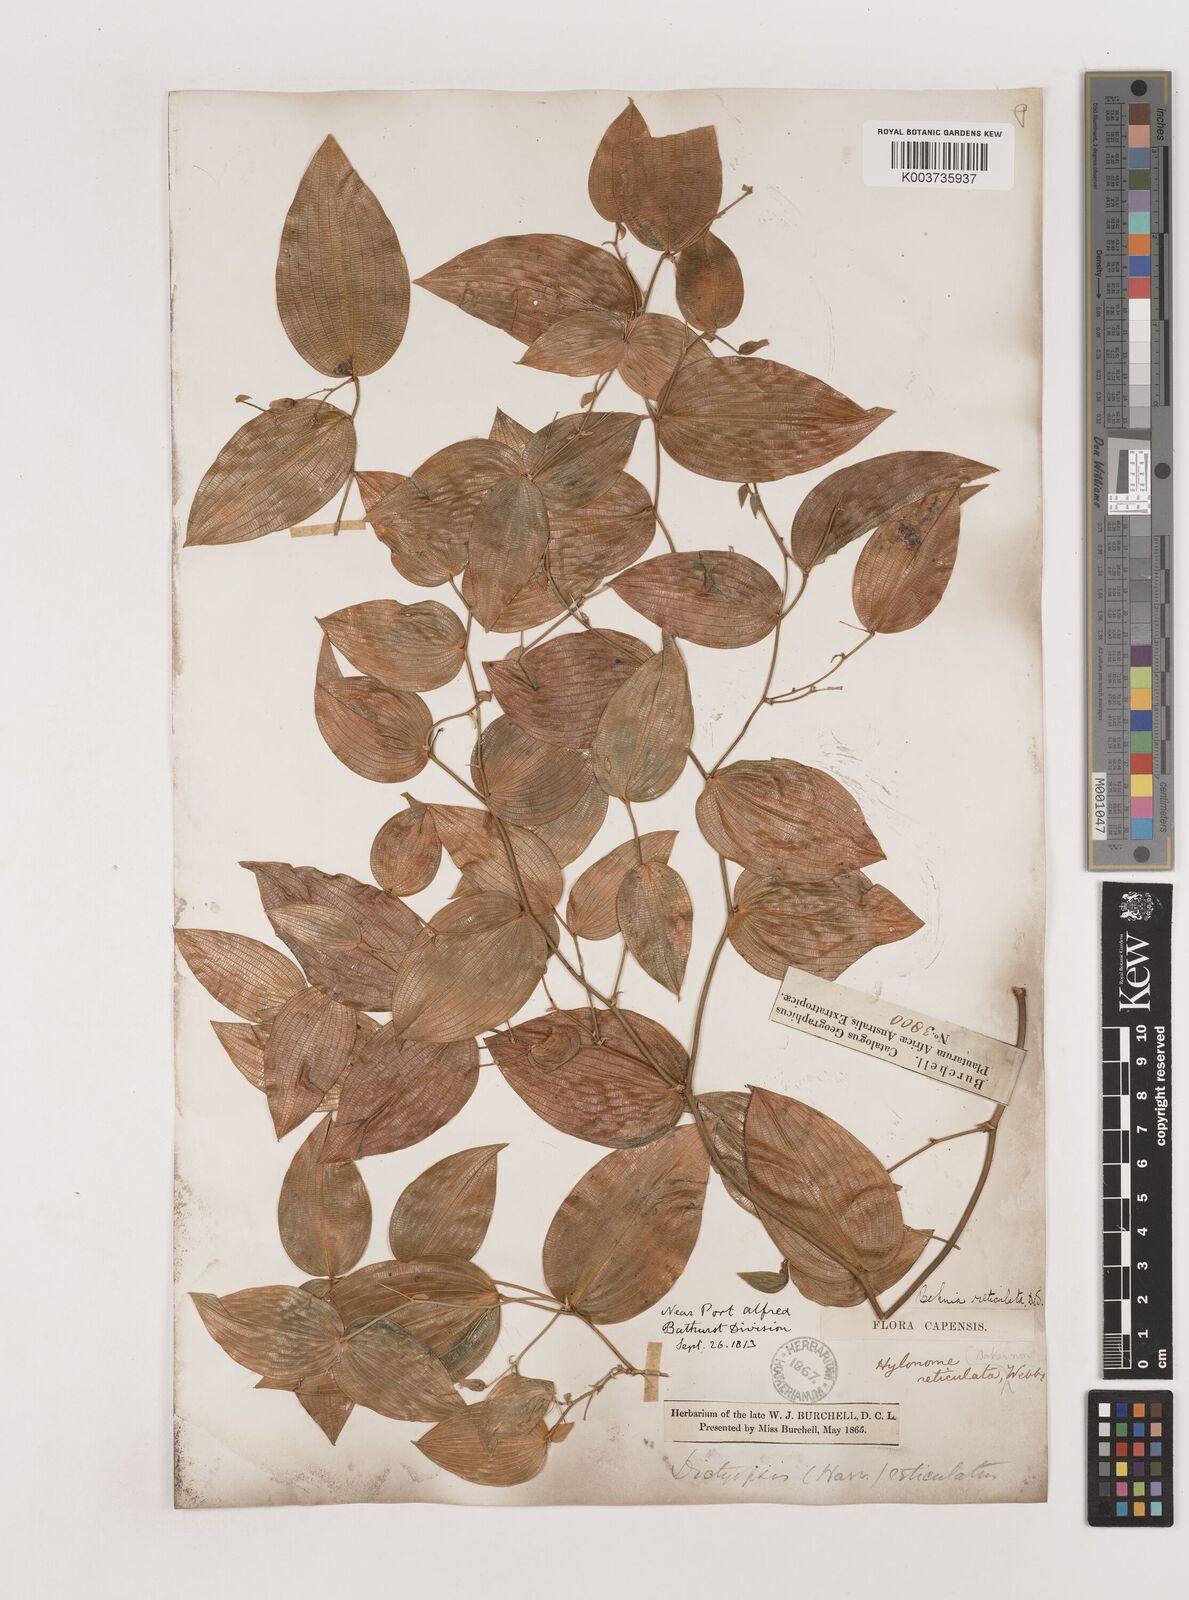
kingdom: Plantae
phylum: Tracheophyta
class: Liliopsida
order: Asparagales
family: Asparagaceae
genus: Behnia
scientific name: Behnia reticulata
